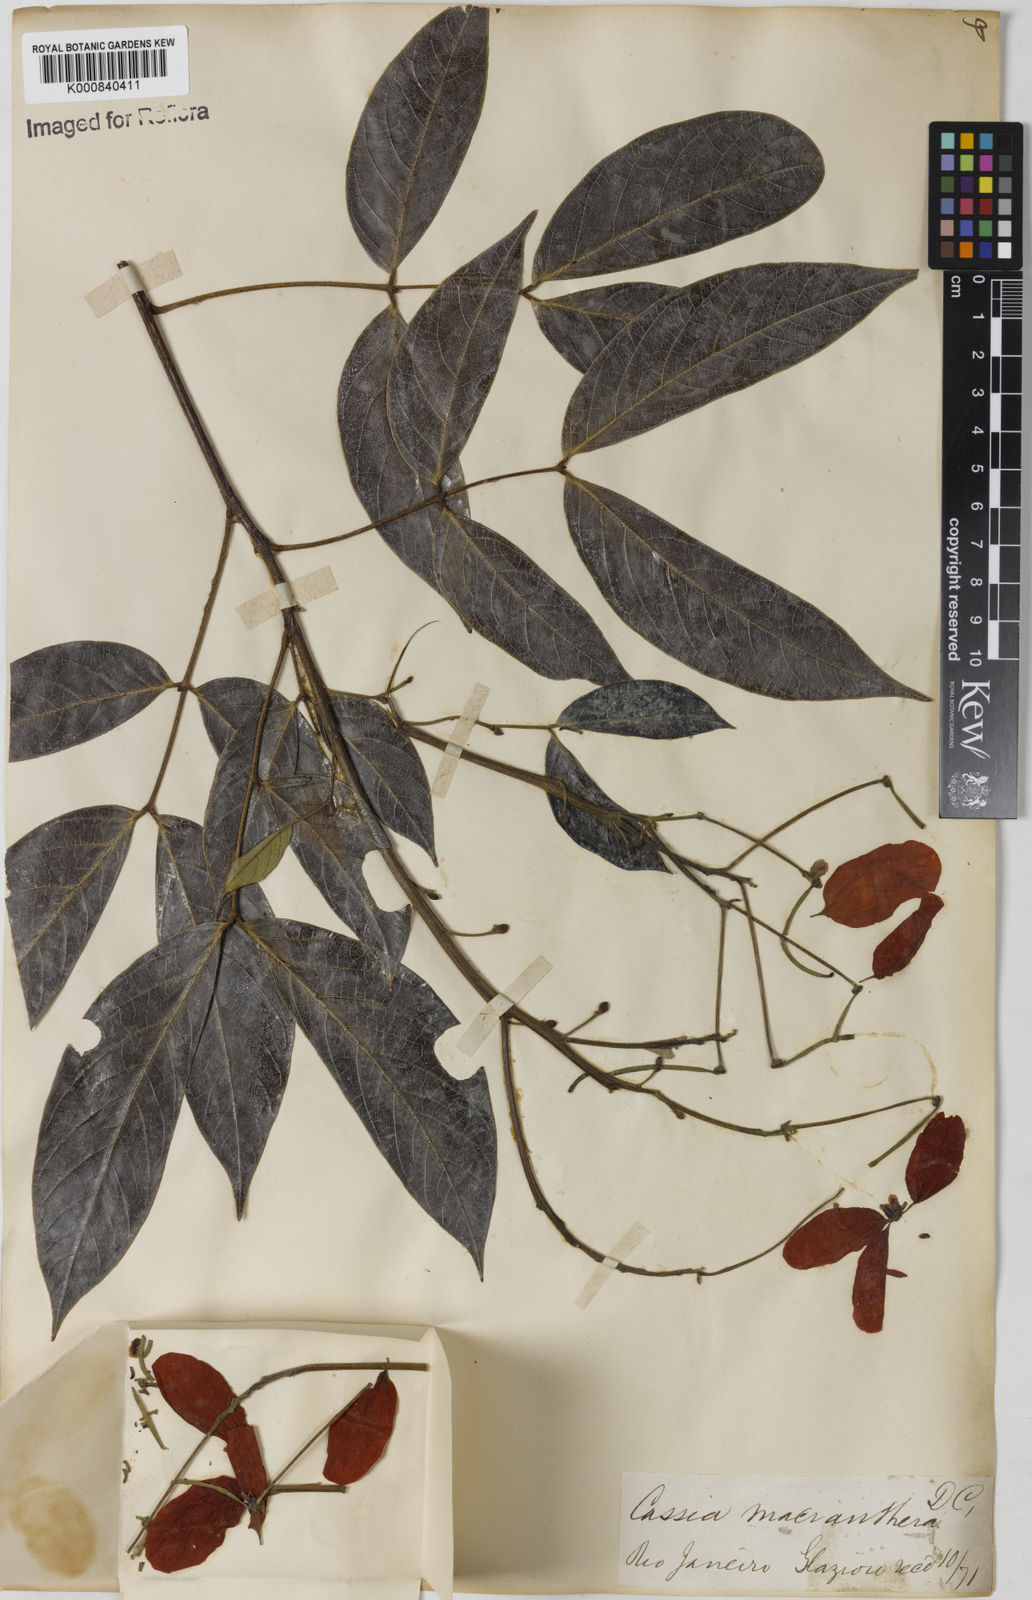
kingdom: Plantae
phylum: Tracheophyta
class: Magnoliopsida
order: Fabales
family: Fabaceae
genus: Senna
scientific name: Senna macranthera
